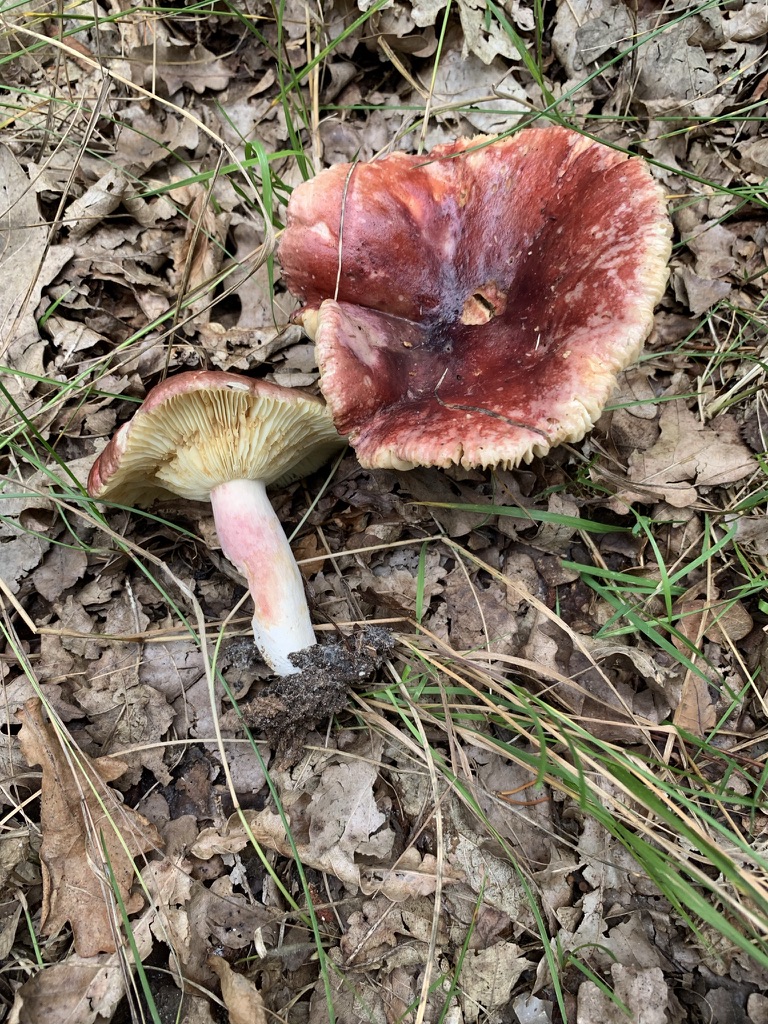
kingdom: Fungi
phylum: Basidiomycota
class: Agaricomycetes
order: Russulales
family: Russulaceae
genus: Russula
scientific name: Russula sardonia
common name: citronbladet skørhat
